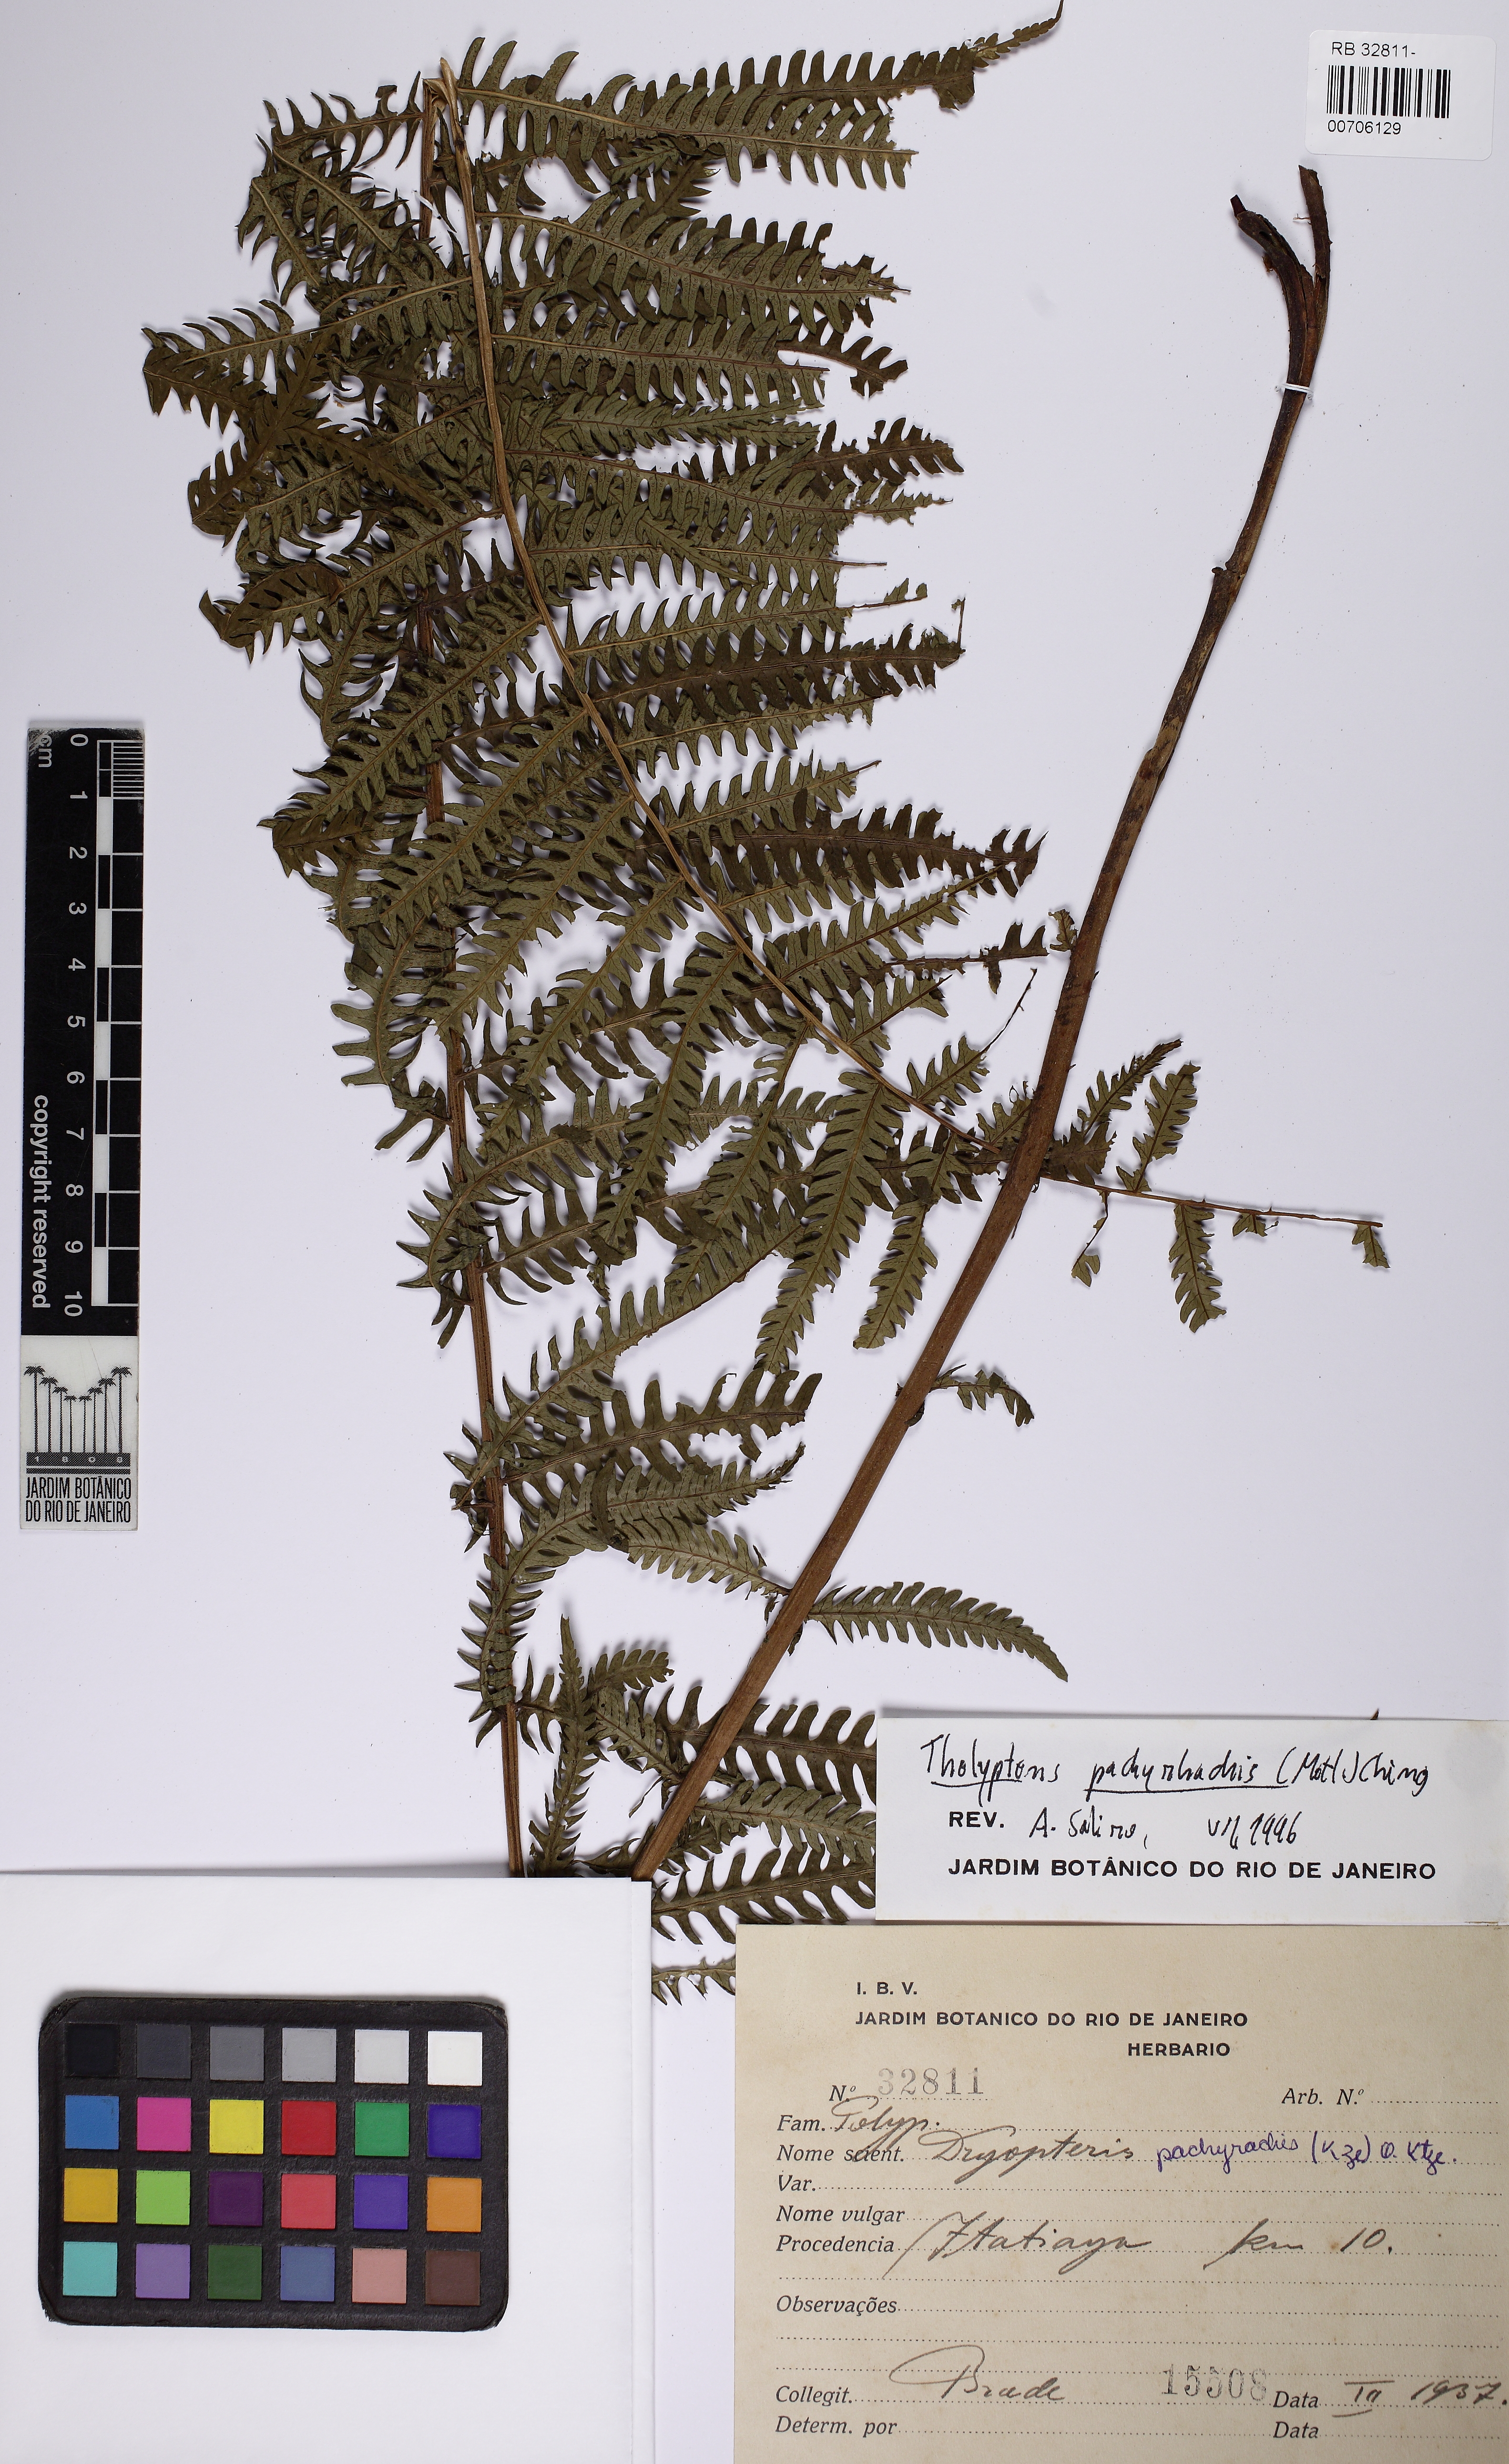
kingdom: Plantae
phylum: Tracheophyta
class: Polypodiopsida
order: Polypodiales
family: Thelypteridaceae
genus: Amauropelta
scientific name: Amauropelta pachyrhachis
